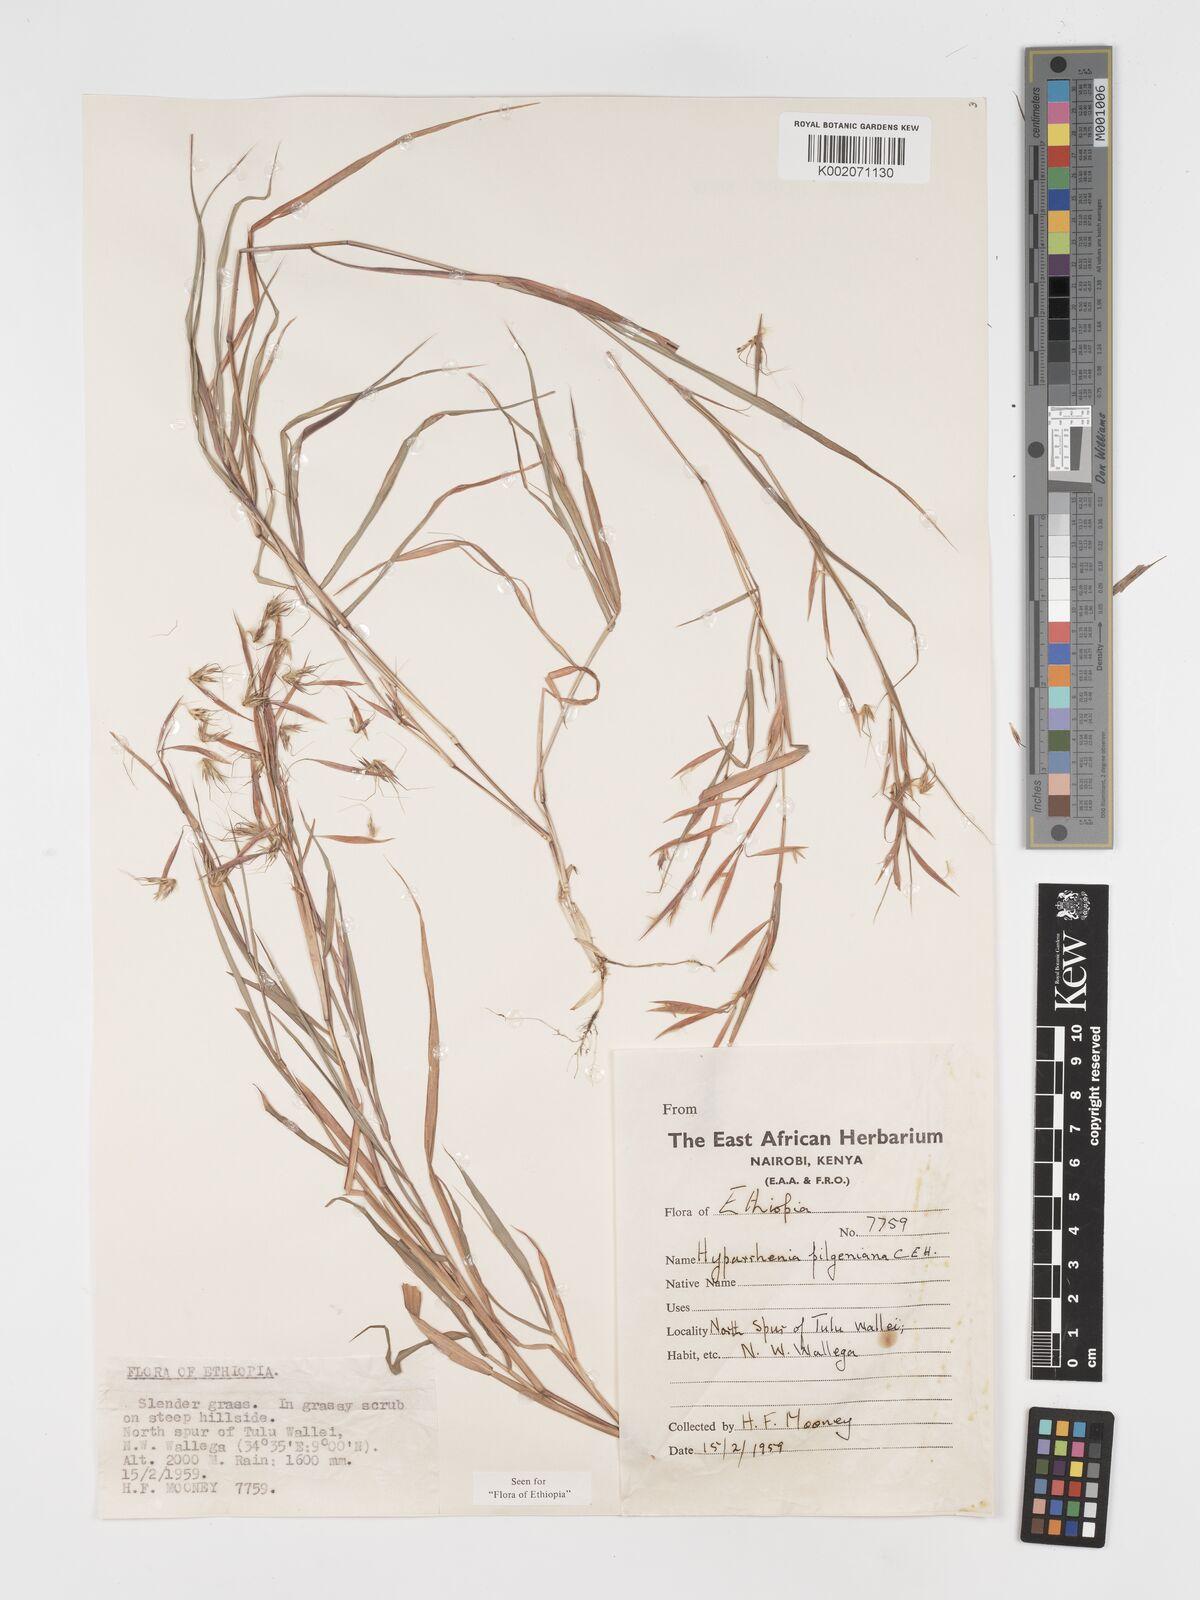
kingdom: Plantae
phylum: Tracheophyta
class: Liliopsida
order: Poales
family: Poaceae
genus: Hyparrhenia
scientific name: Hyparrhenia pilgeriana
